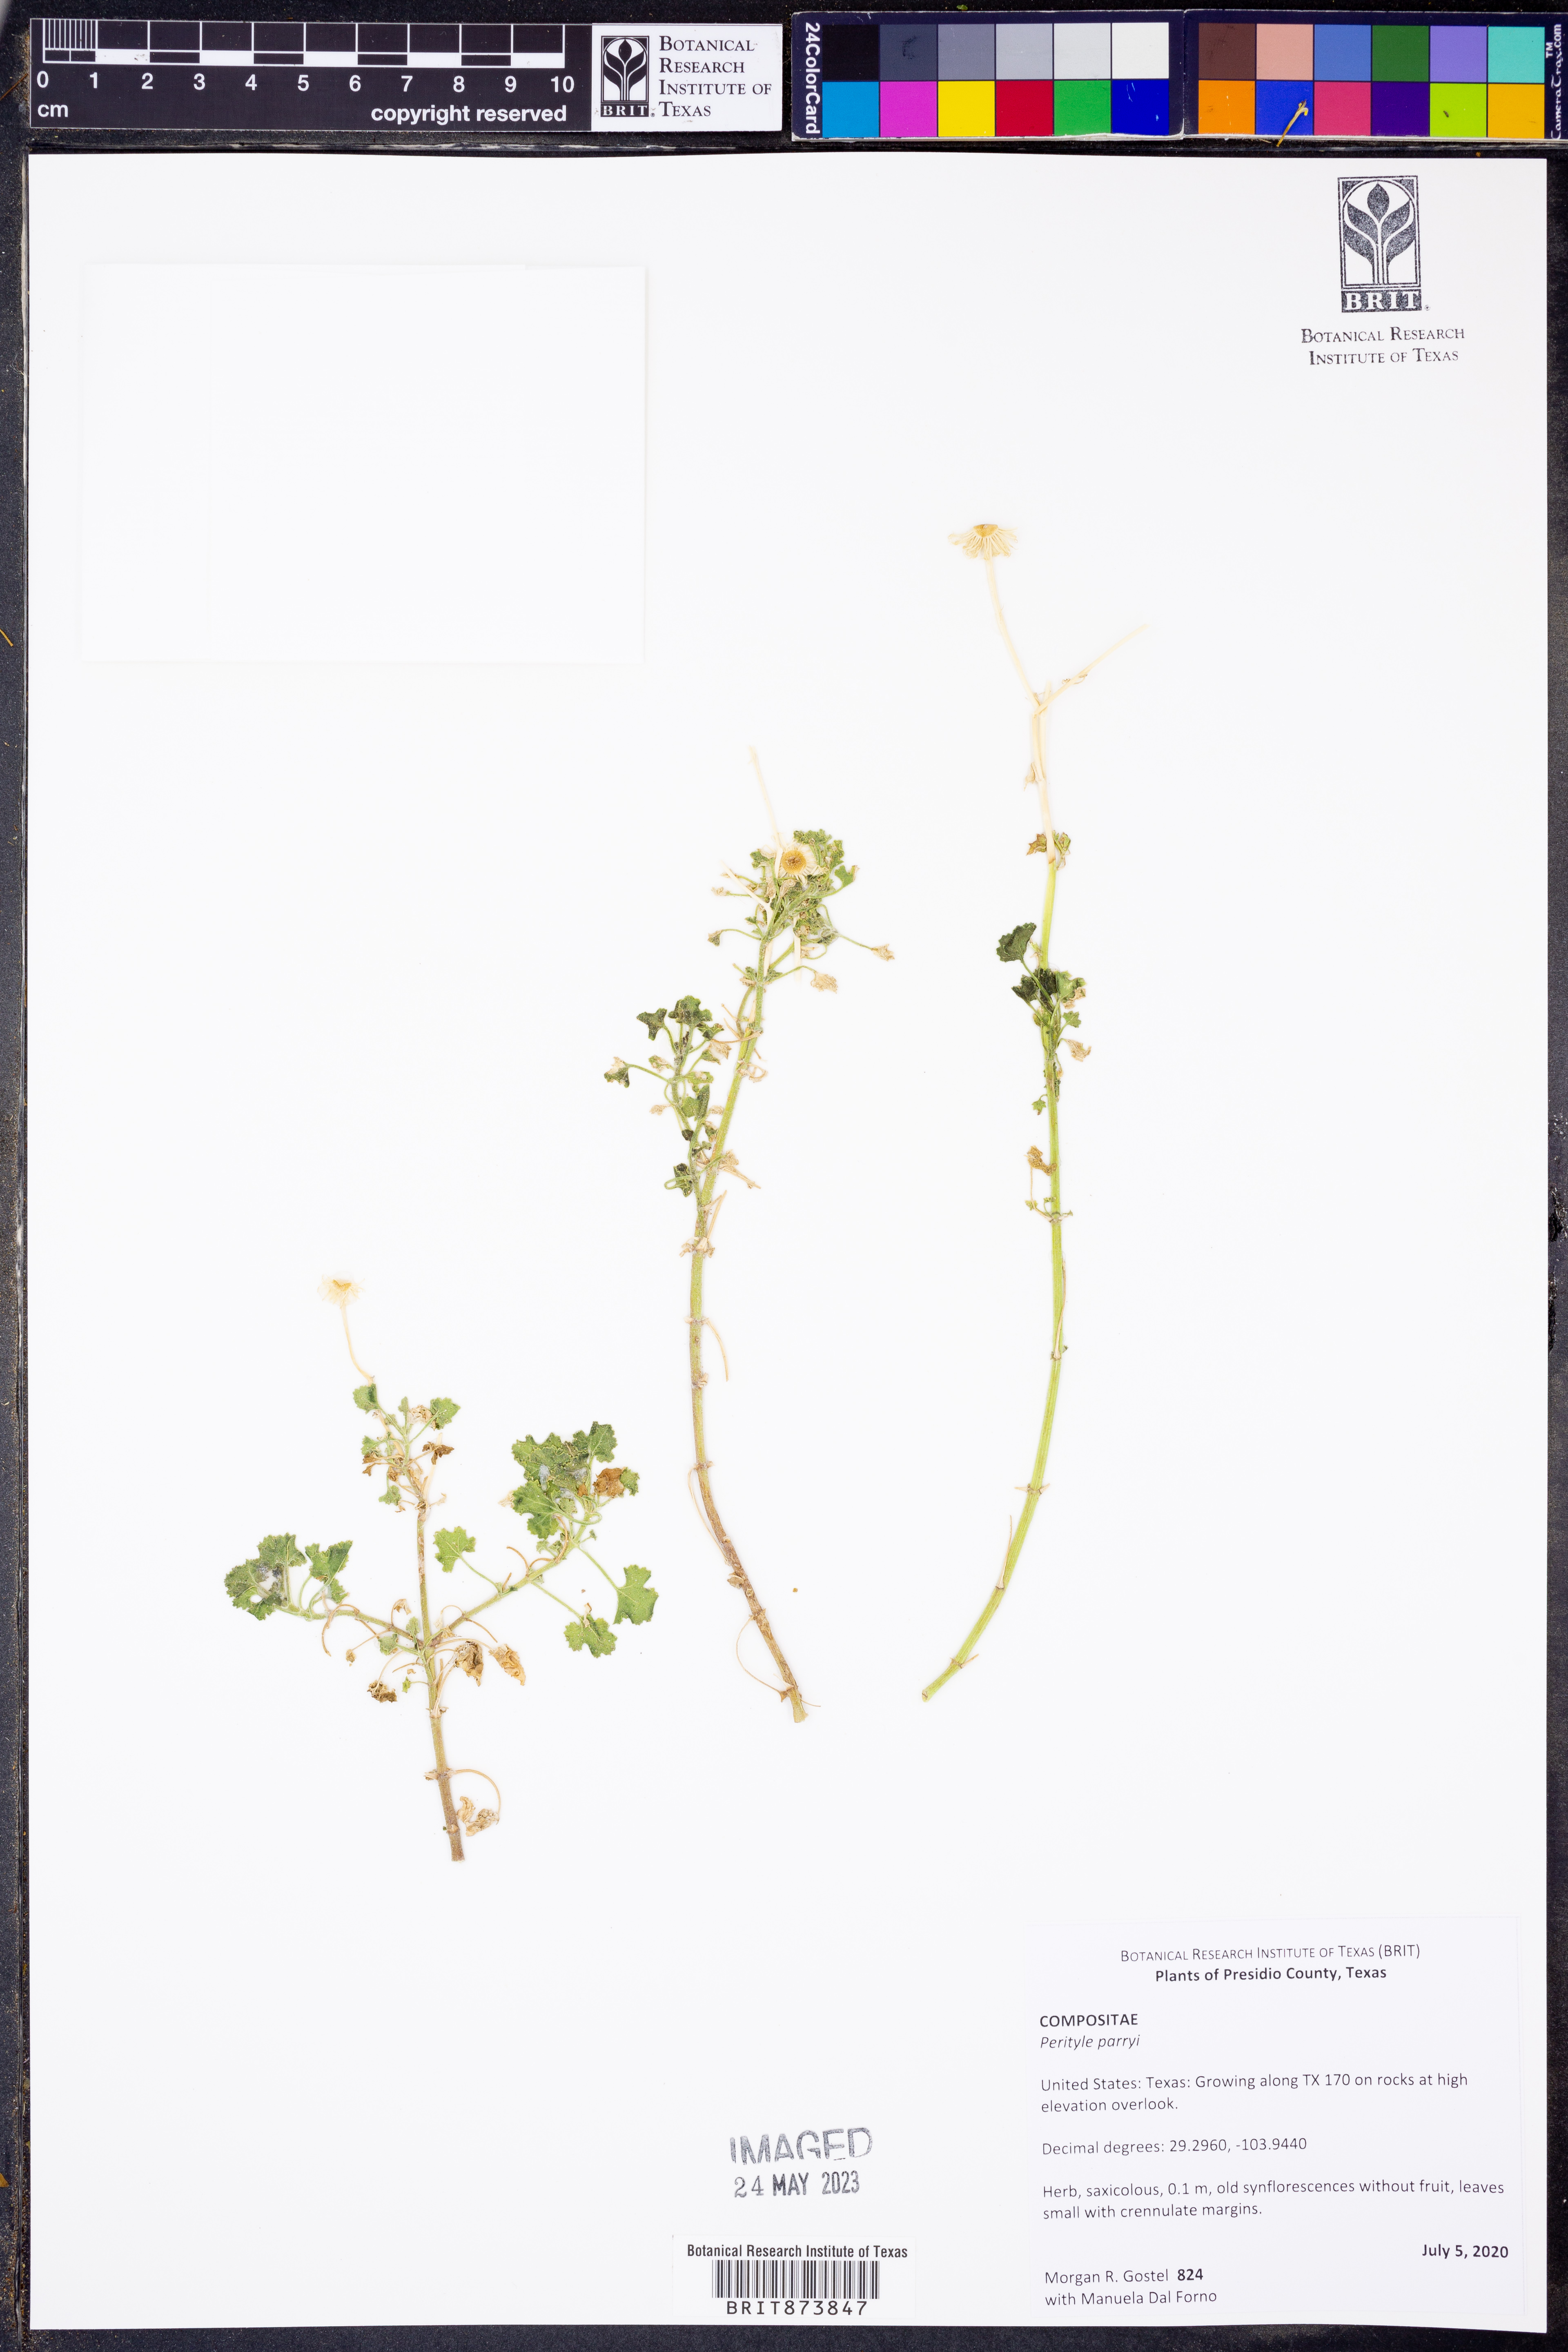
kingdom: Plantae
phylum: Tracheophyta
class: Magnoliopsida
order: Asterales
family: Asteraceae
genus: Laphamia
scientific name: Laphamia parryi
